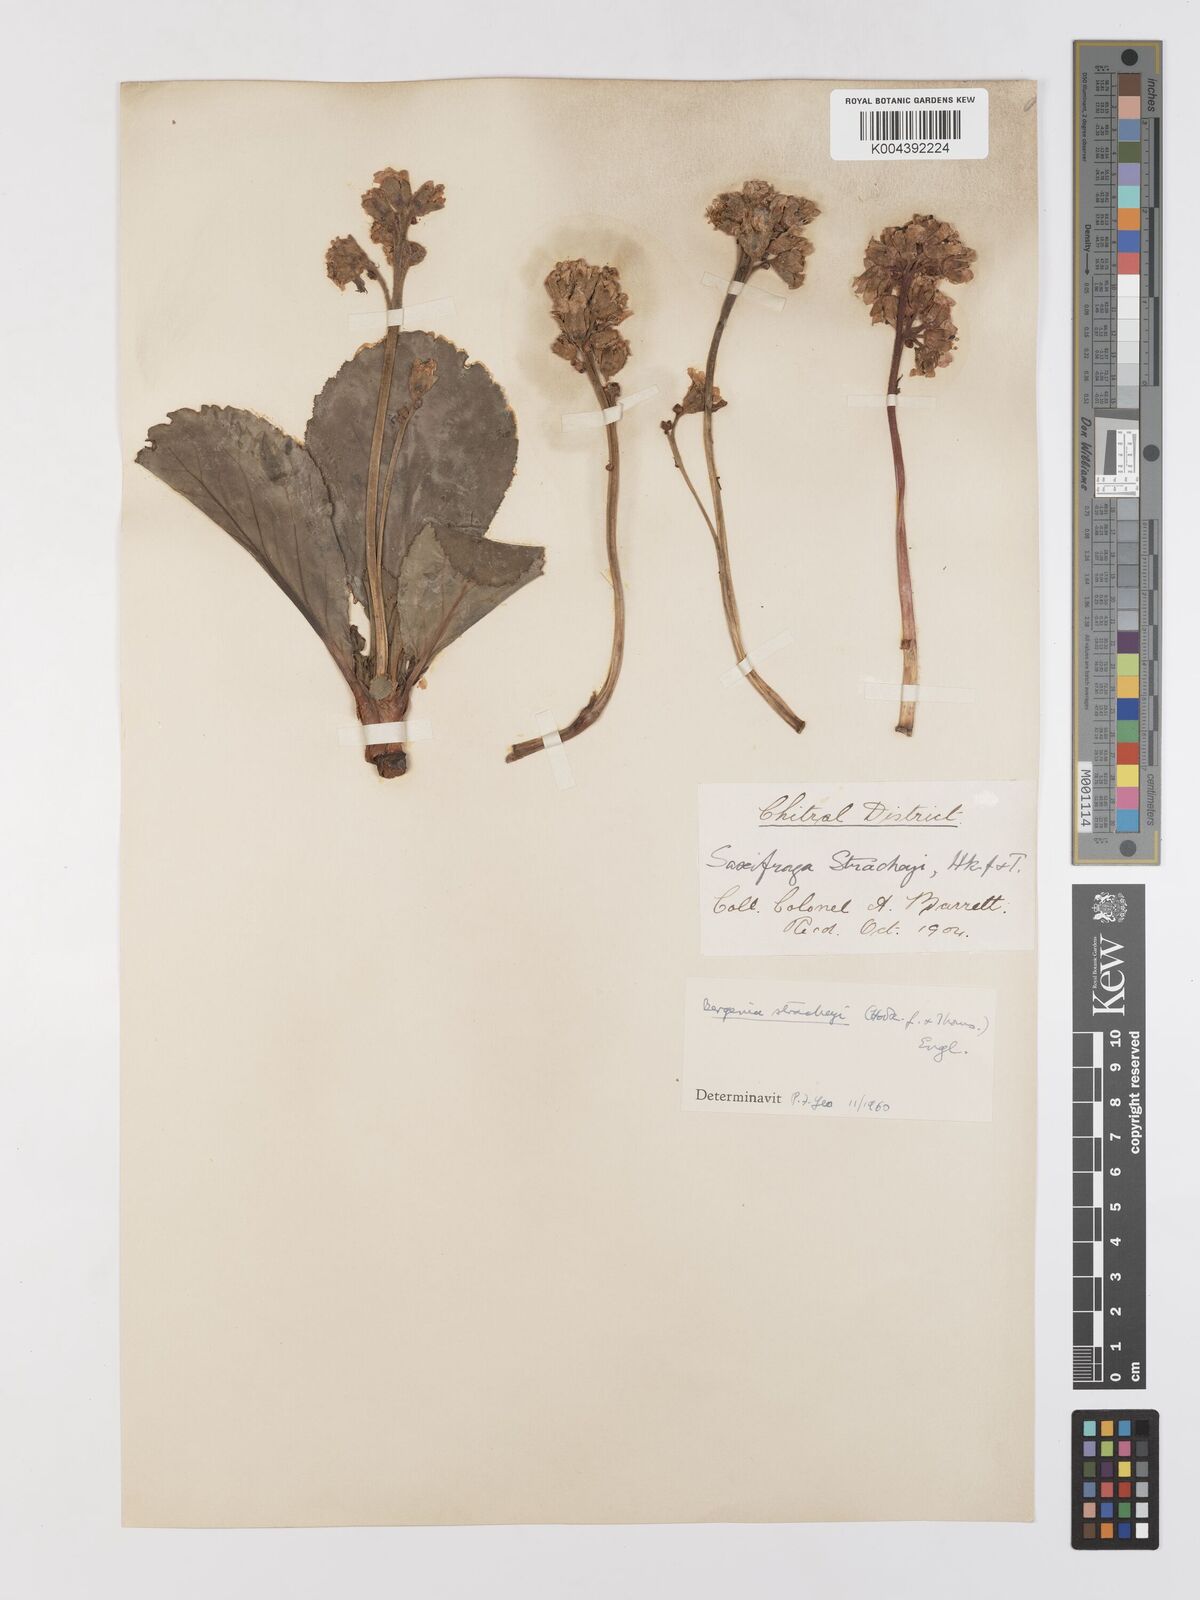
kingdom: Plantae
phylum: Tracheophyta
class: Magnoliopsida
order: Saxifragales
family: Saxifragaceae
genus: Bergenia
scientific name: Bergenia stracheyi
